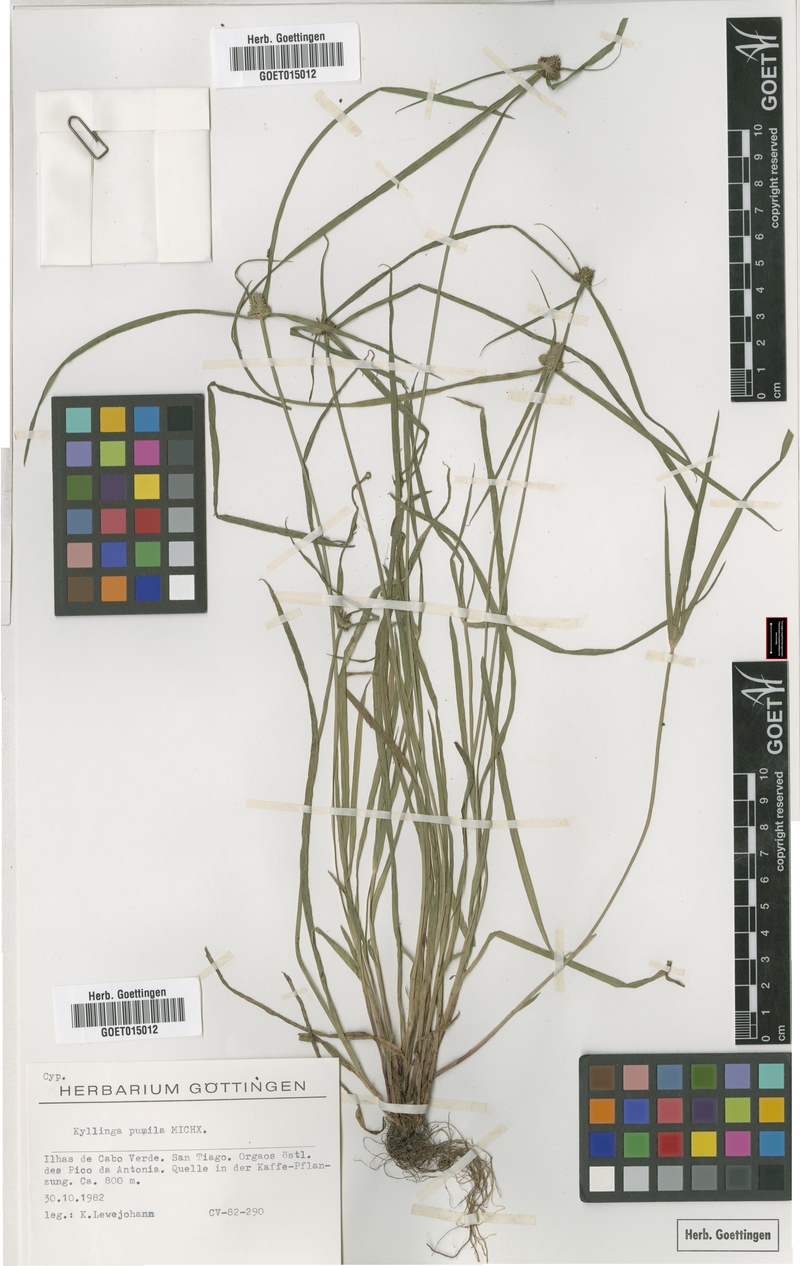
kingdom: Plantae
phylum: Tracheophyta
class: Liliopsida
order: Poales
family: Cyperaceae
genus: Cyperus
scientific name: Cyperus hortensis
